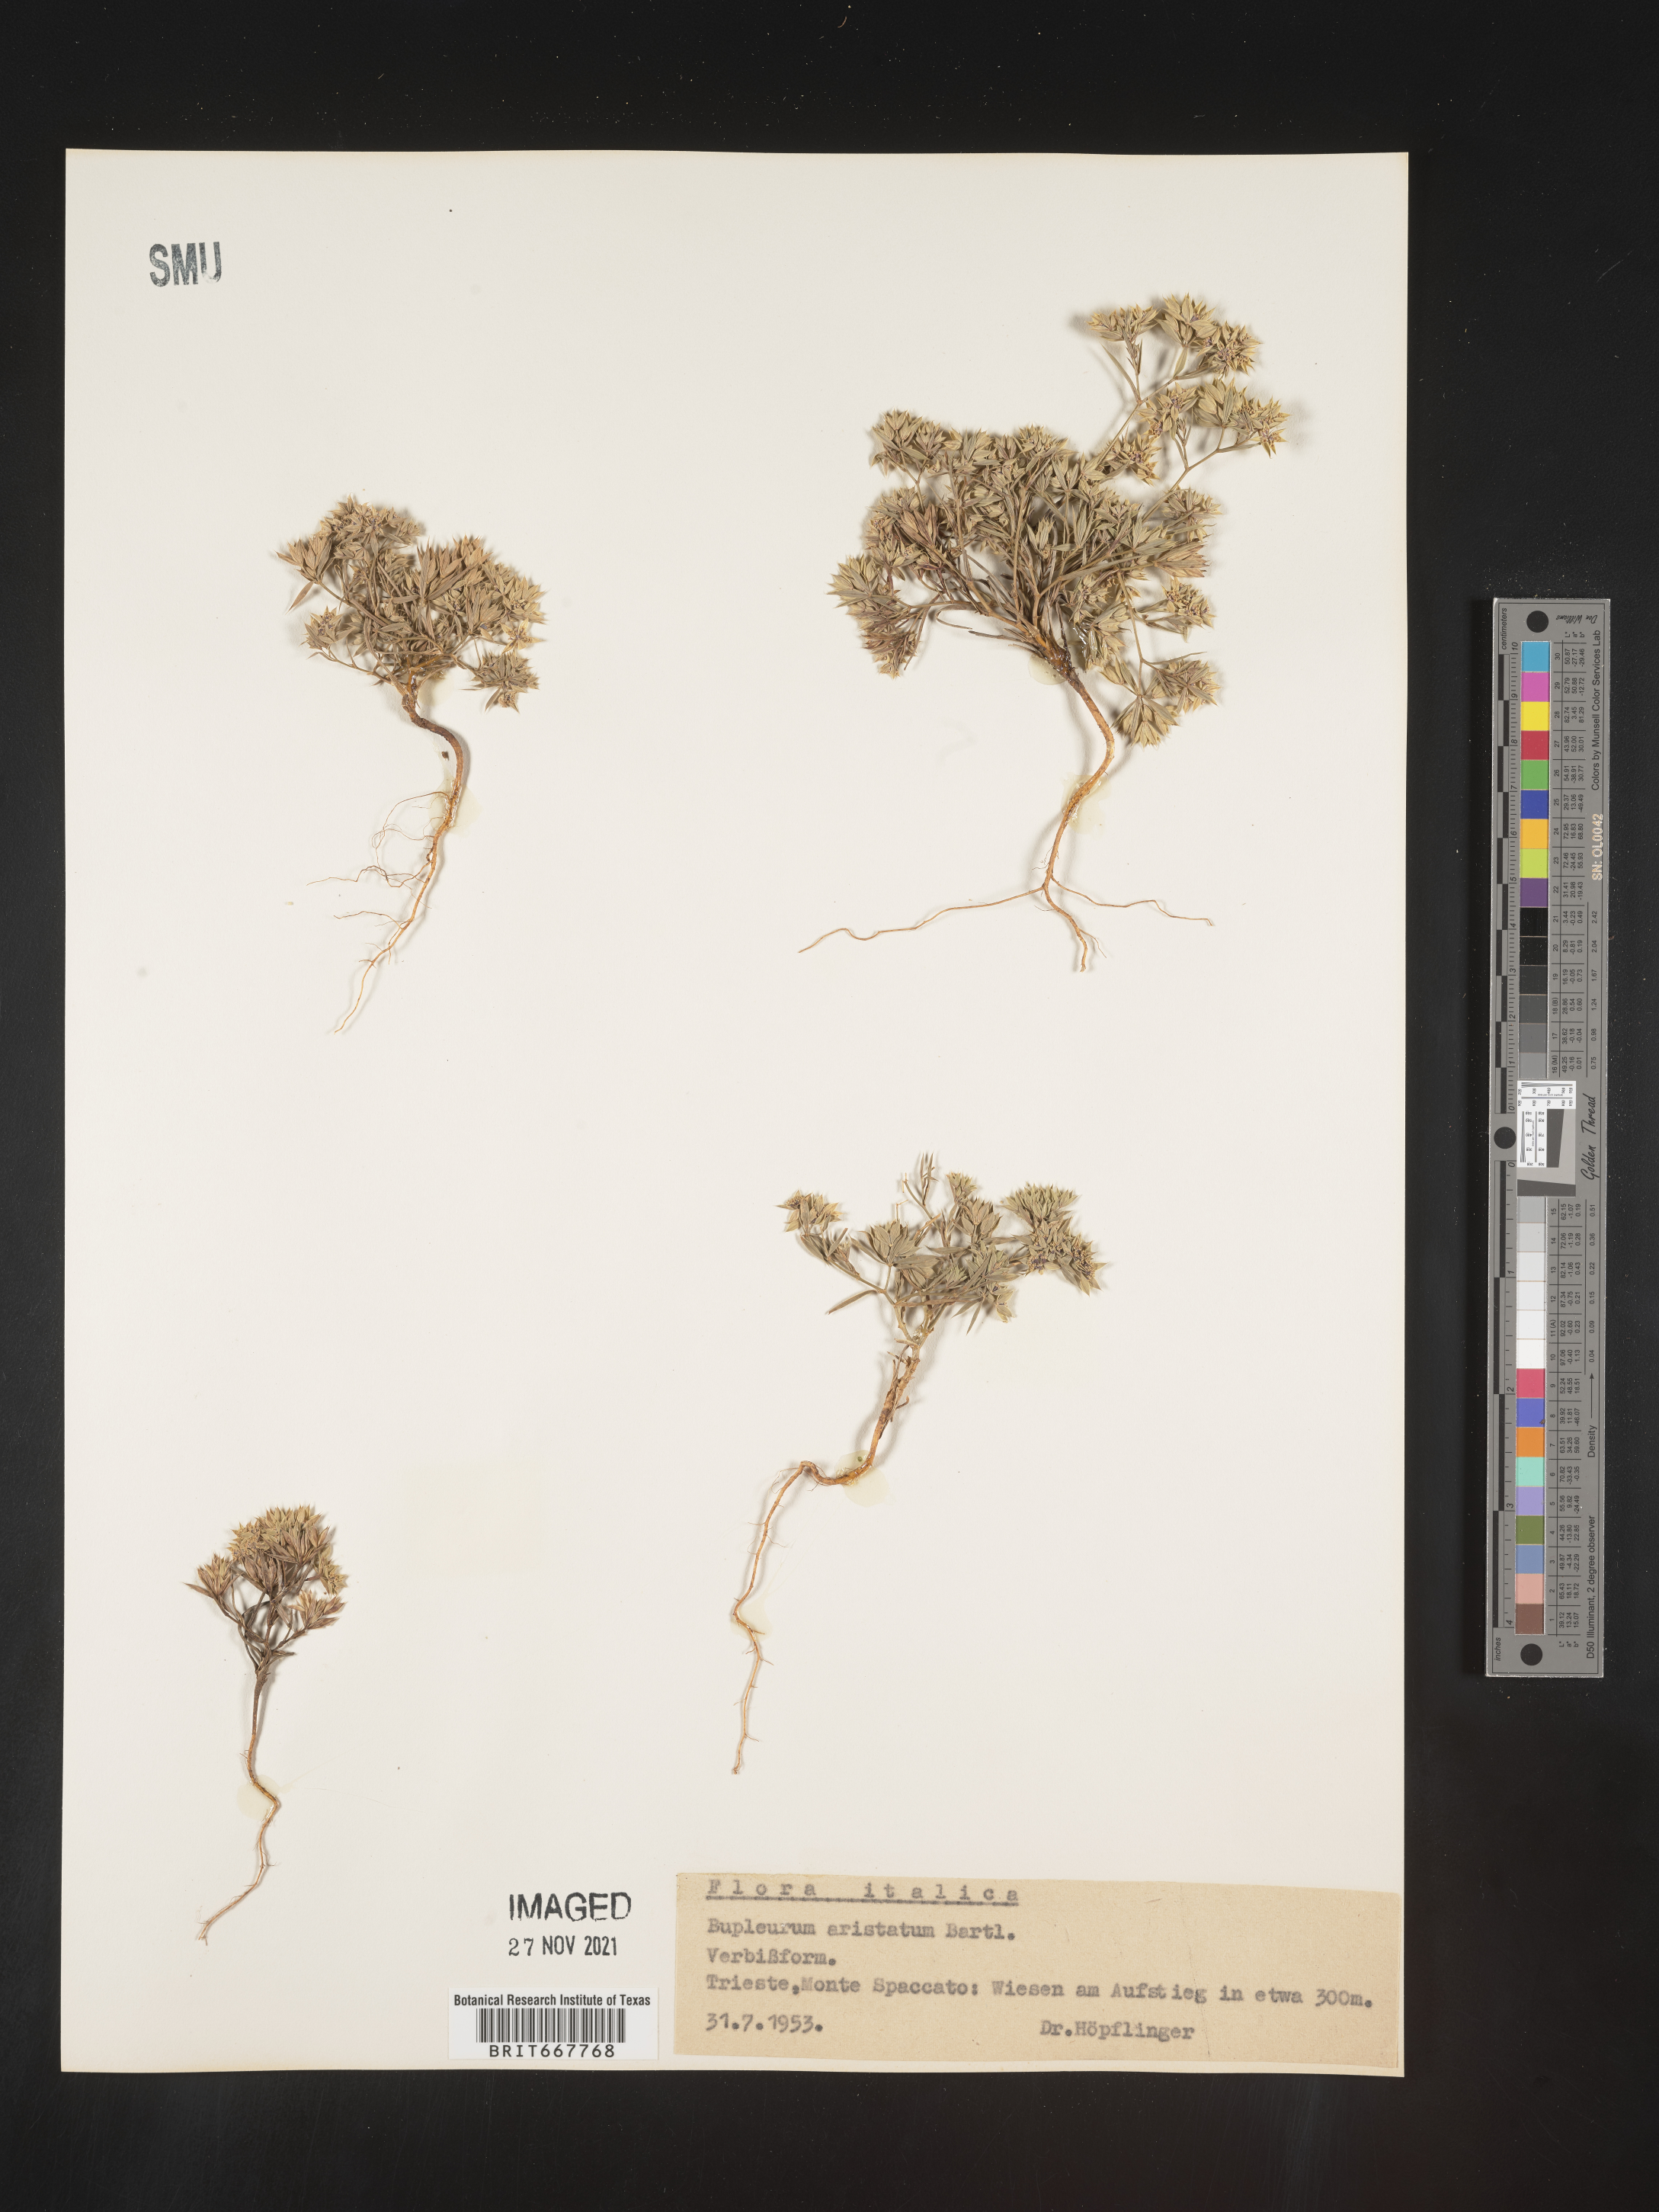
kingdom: Plantae
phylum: Tracheophyta
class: Magnoliopsida
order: Apiales
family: Apiaceae
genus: Bupleurum
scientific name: Bupleurum
